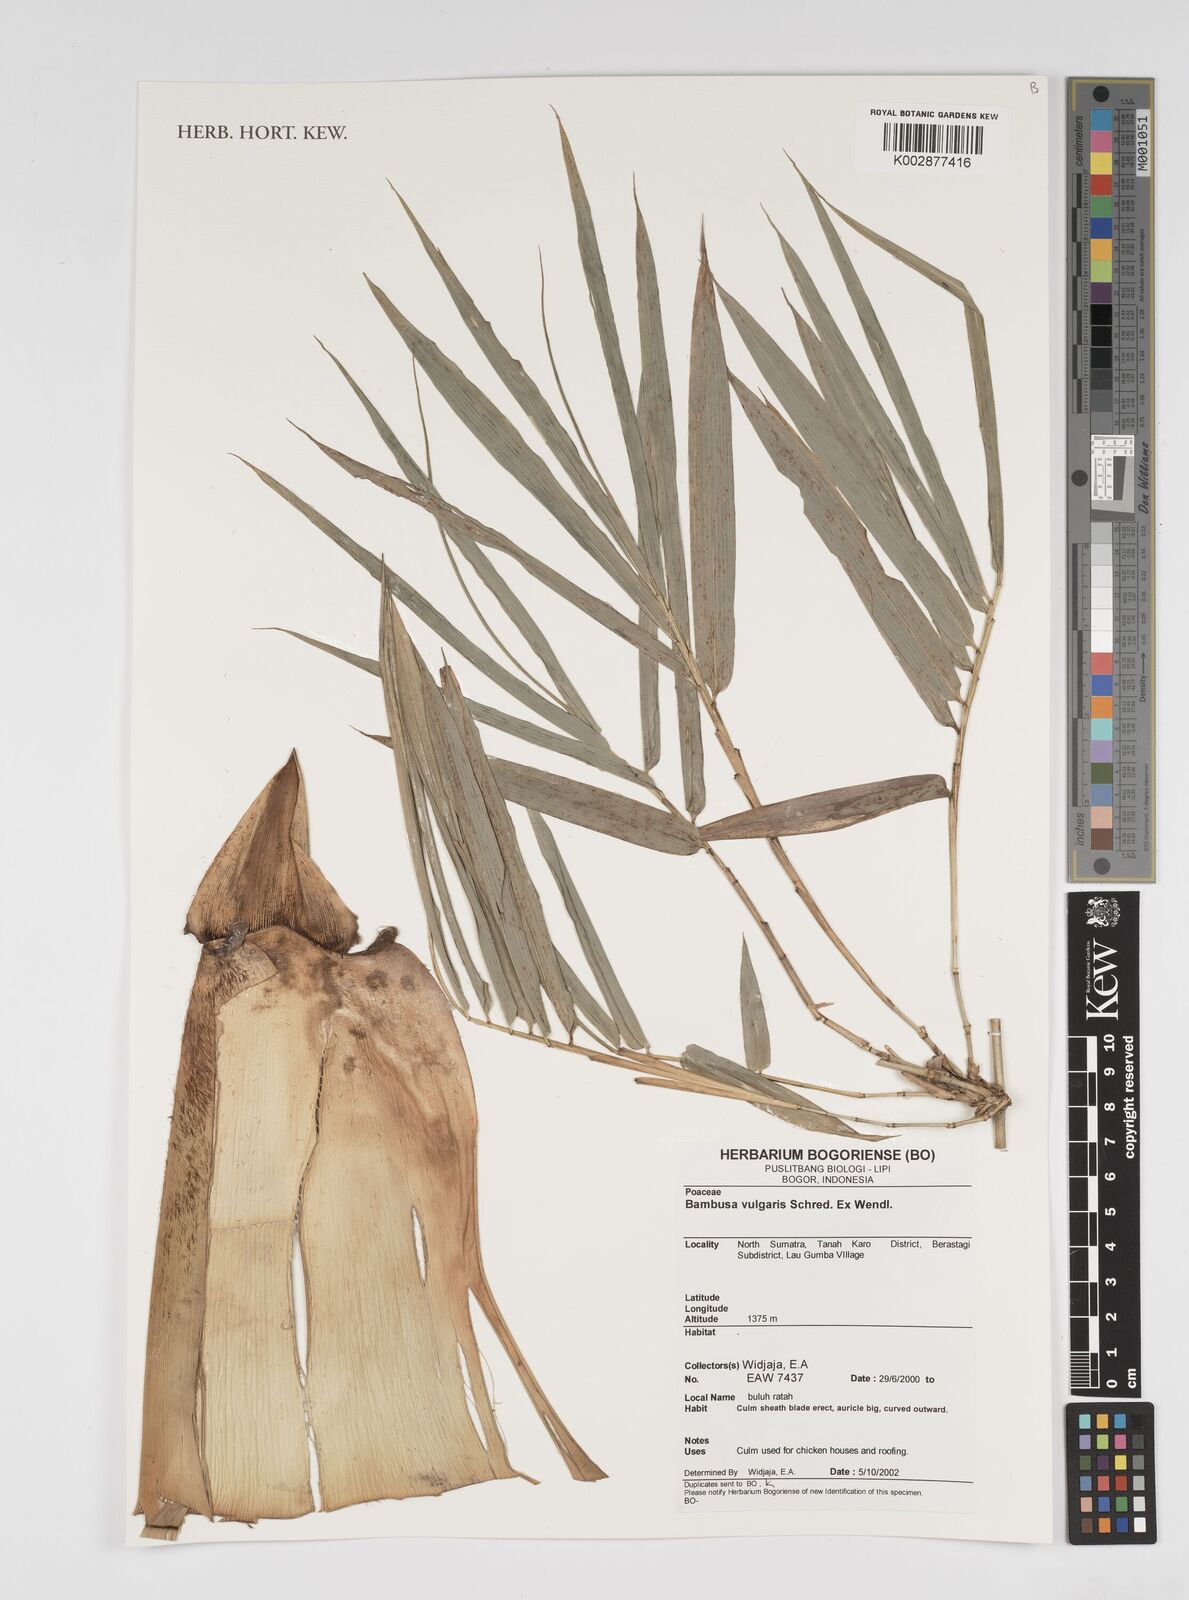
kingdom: Plantae
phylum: Tracheophyta
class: Liliopsida
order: Poales
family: Poaceae
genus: Bambusa
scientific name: Bambusa vulgaris
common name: Common bamboo
